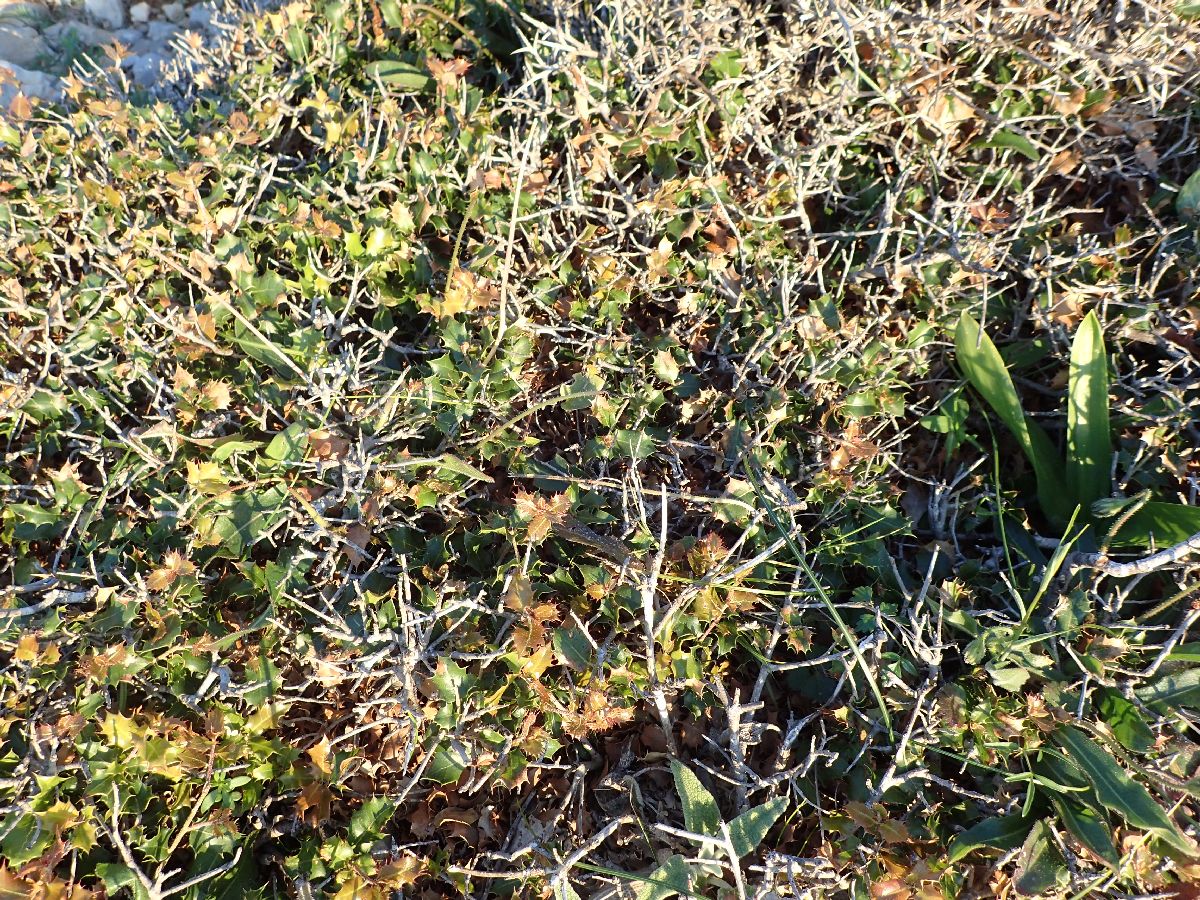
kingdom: Plantae
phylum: Tracheophyta
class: Magnoliopsida
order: Fagales
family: Fagaceae
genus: Quercus
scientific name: Quercus coccifera
